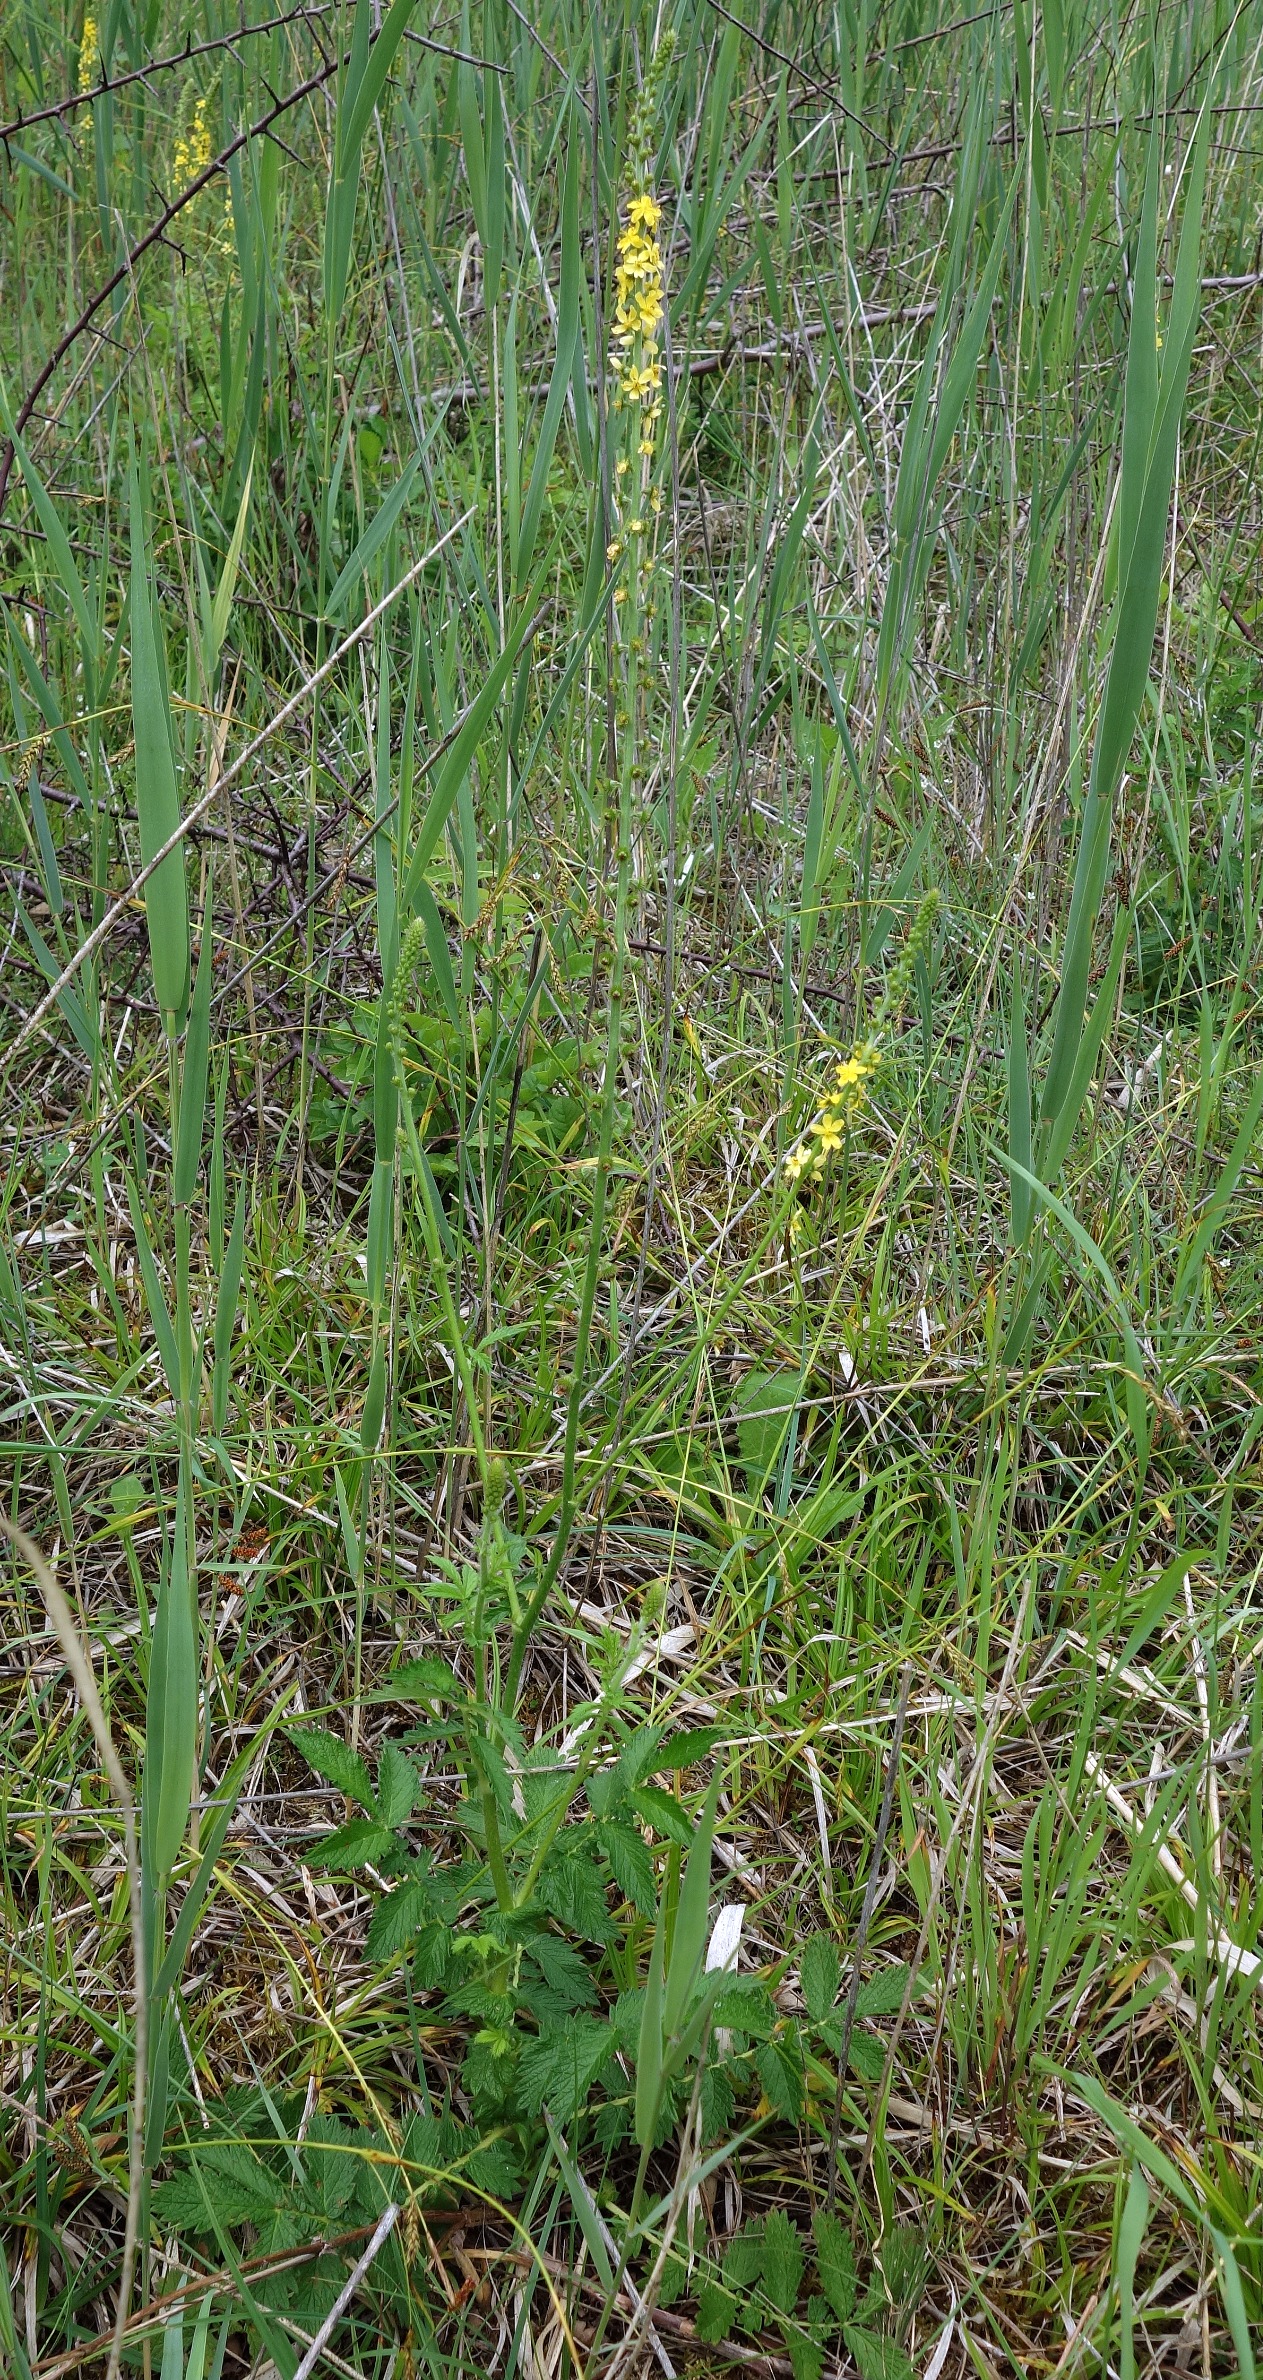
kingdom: Plantae
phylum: Tracheophyta
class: Magnoliopsida
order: Rosales
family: Rosaceae
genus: Agrimonia
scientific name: Agrimonia eupatoria
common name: Almindelig agermåne
